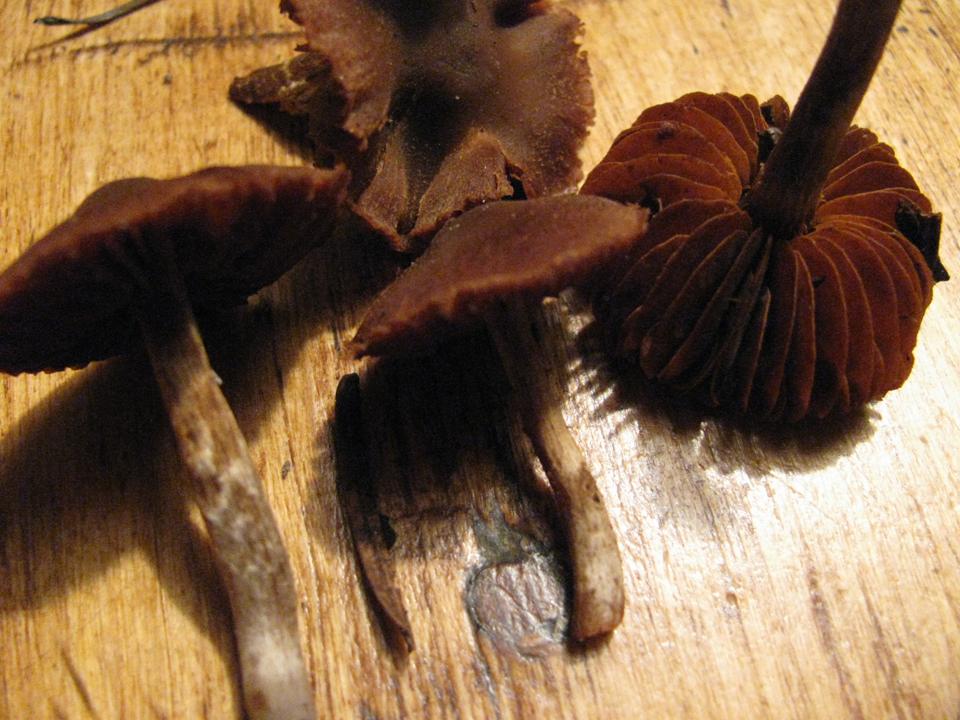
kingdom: Fungi
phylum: Basidiomycota
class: Agaricomycetes
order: Agaricales
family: Cortinariaceae
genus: Cortinarius
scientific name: Cortinarius
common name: pelargonie-slørhat
